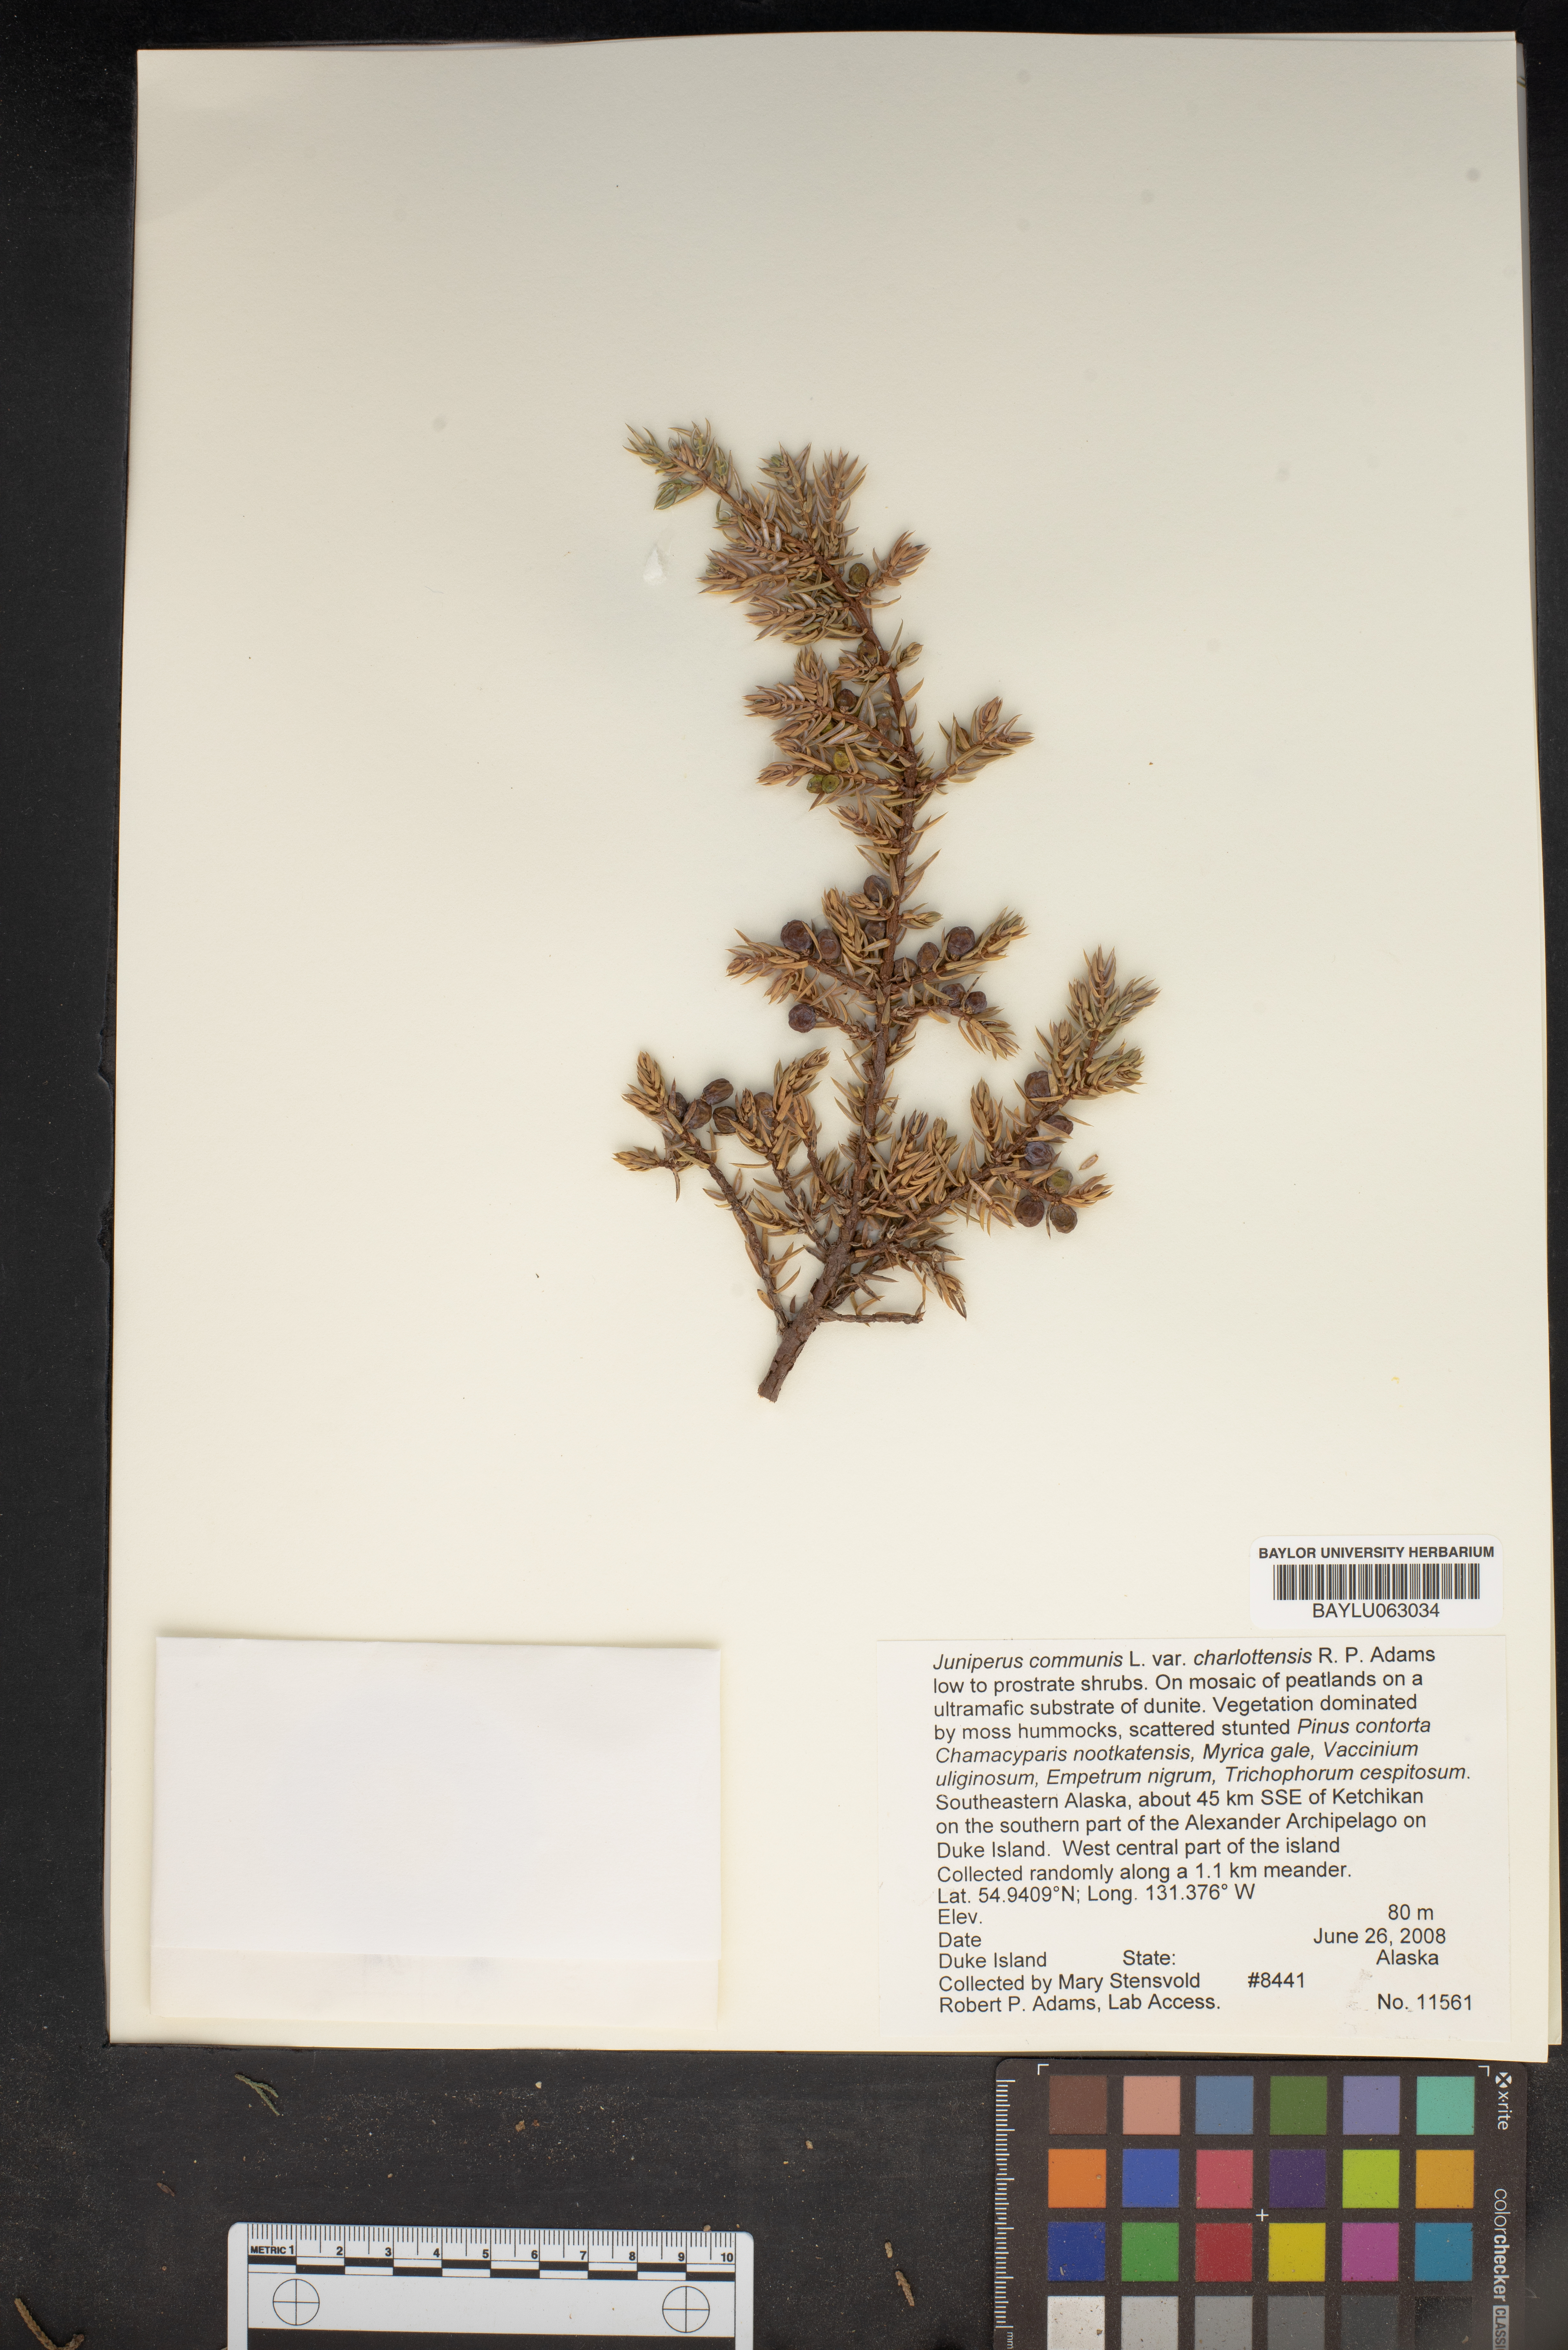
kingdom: Plantae
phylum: Tracheophyta
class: Pinopsida
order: Pinales
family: Cupressaceae
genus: Juniperus
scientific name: Juniperus communis
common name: Common juniper
